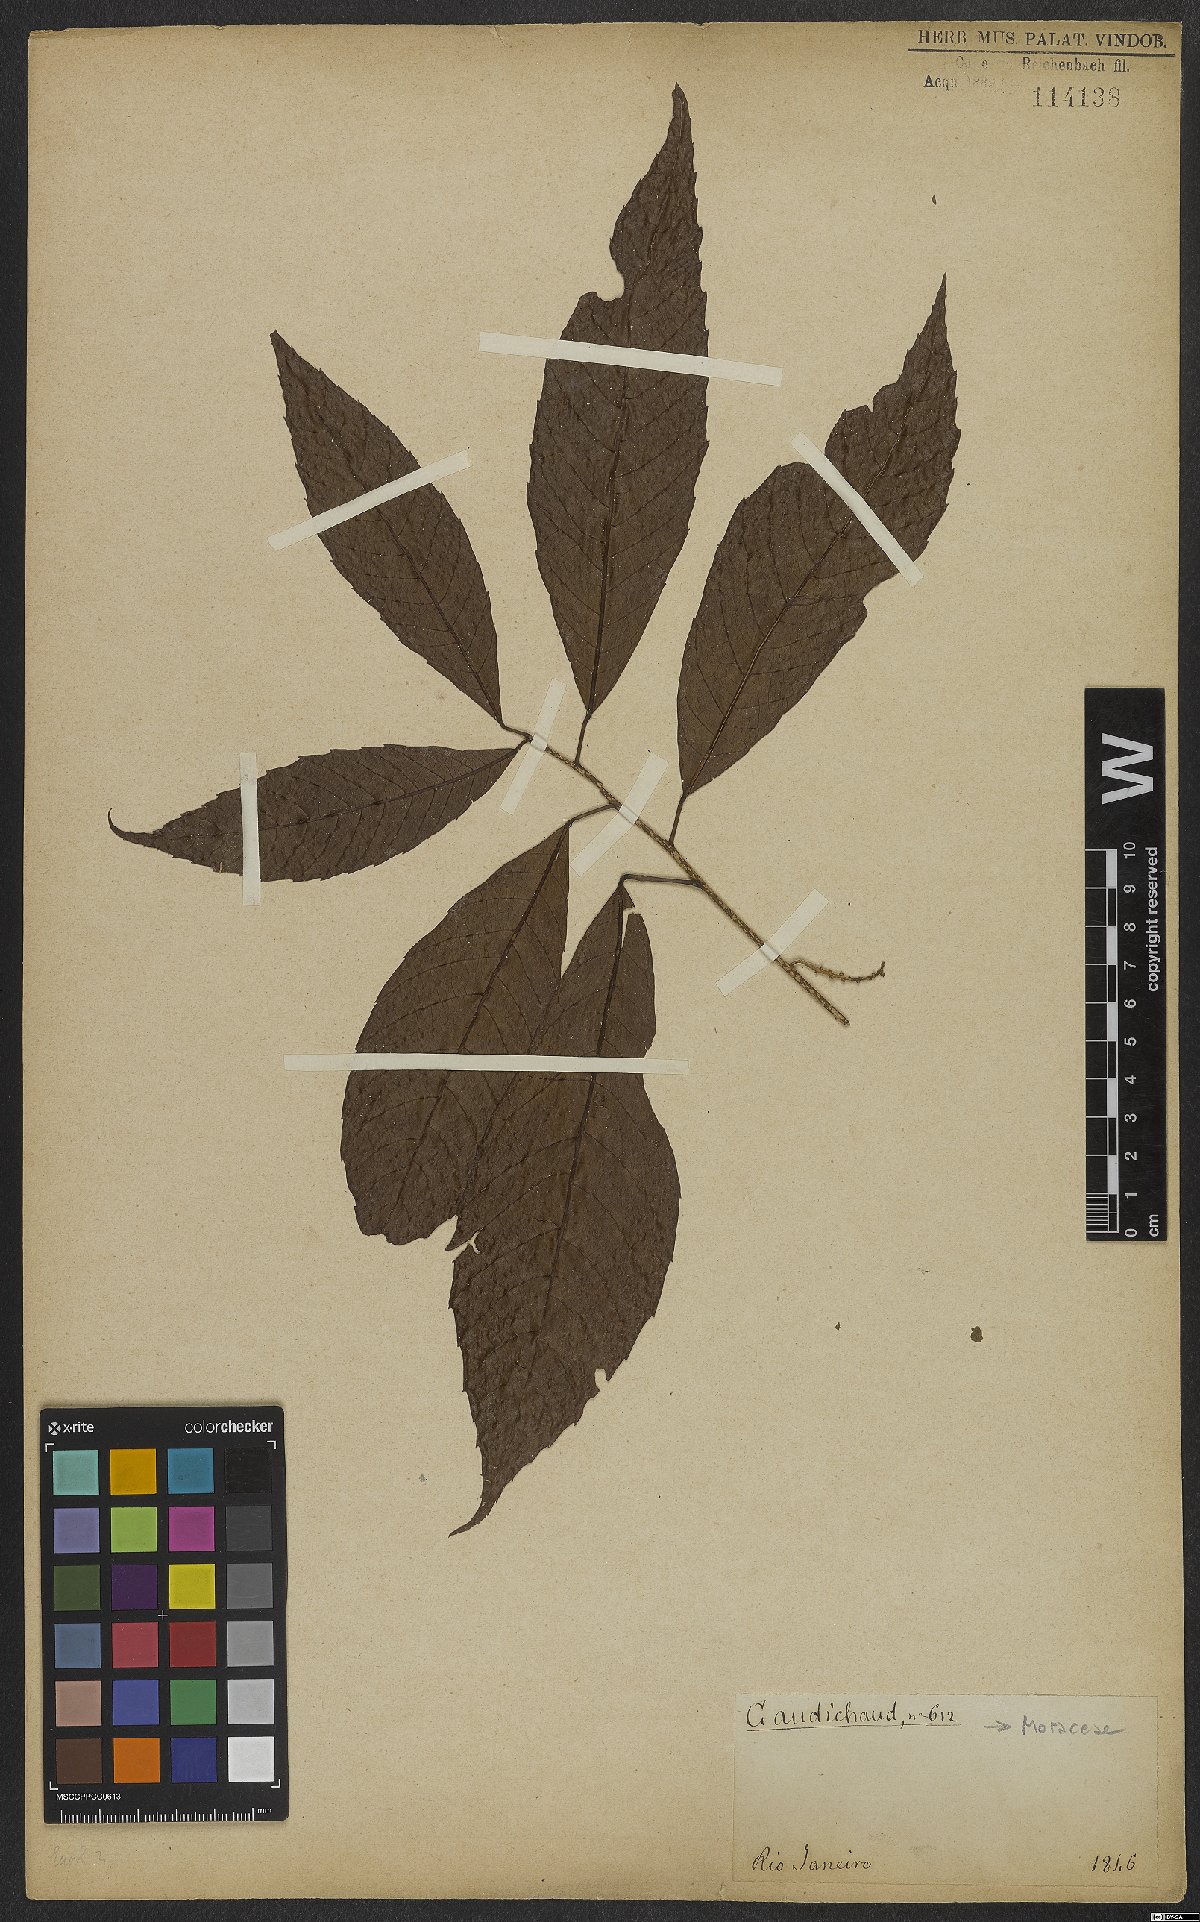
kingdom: Plantae
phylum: Tracheophyta
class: Magnoliopsida
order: Rosales
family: Moraceae
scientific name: Moraceae
